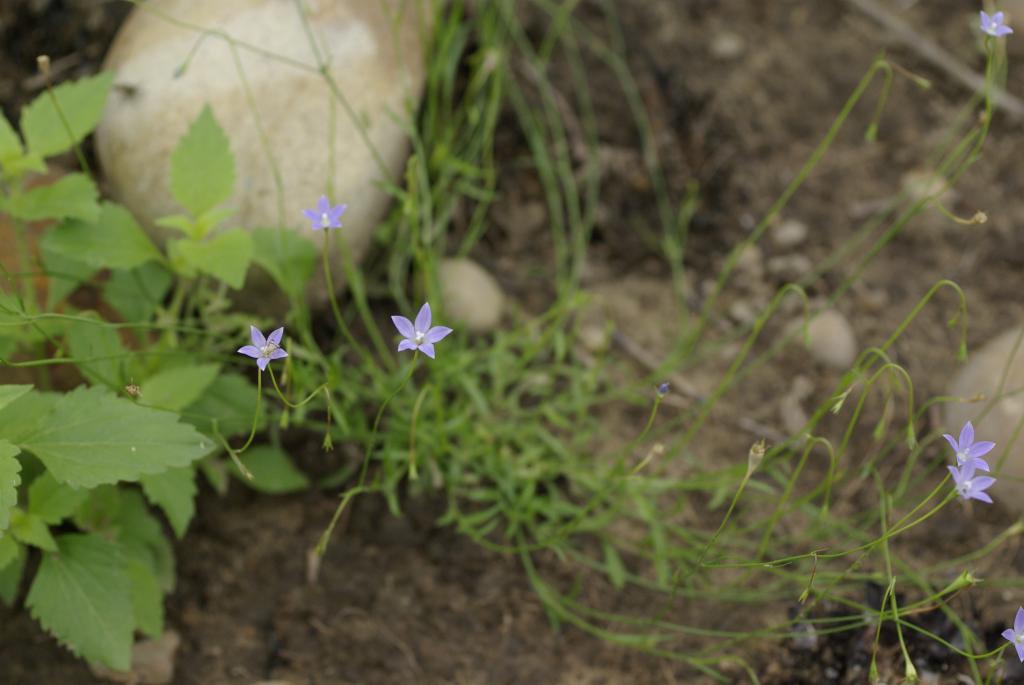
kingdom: Plantae
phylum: Tracheophyta
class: Magnoliopsida
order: Asterales
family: Campanulaceae
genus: Wahlenbergia
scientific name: Wahlenbergia marginata
